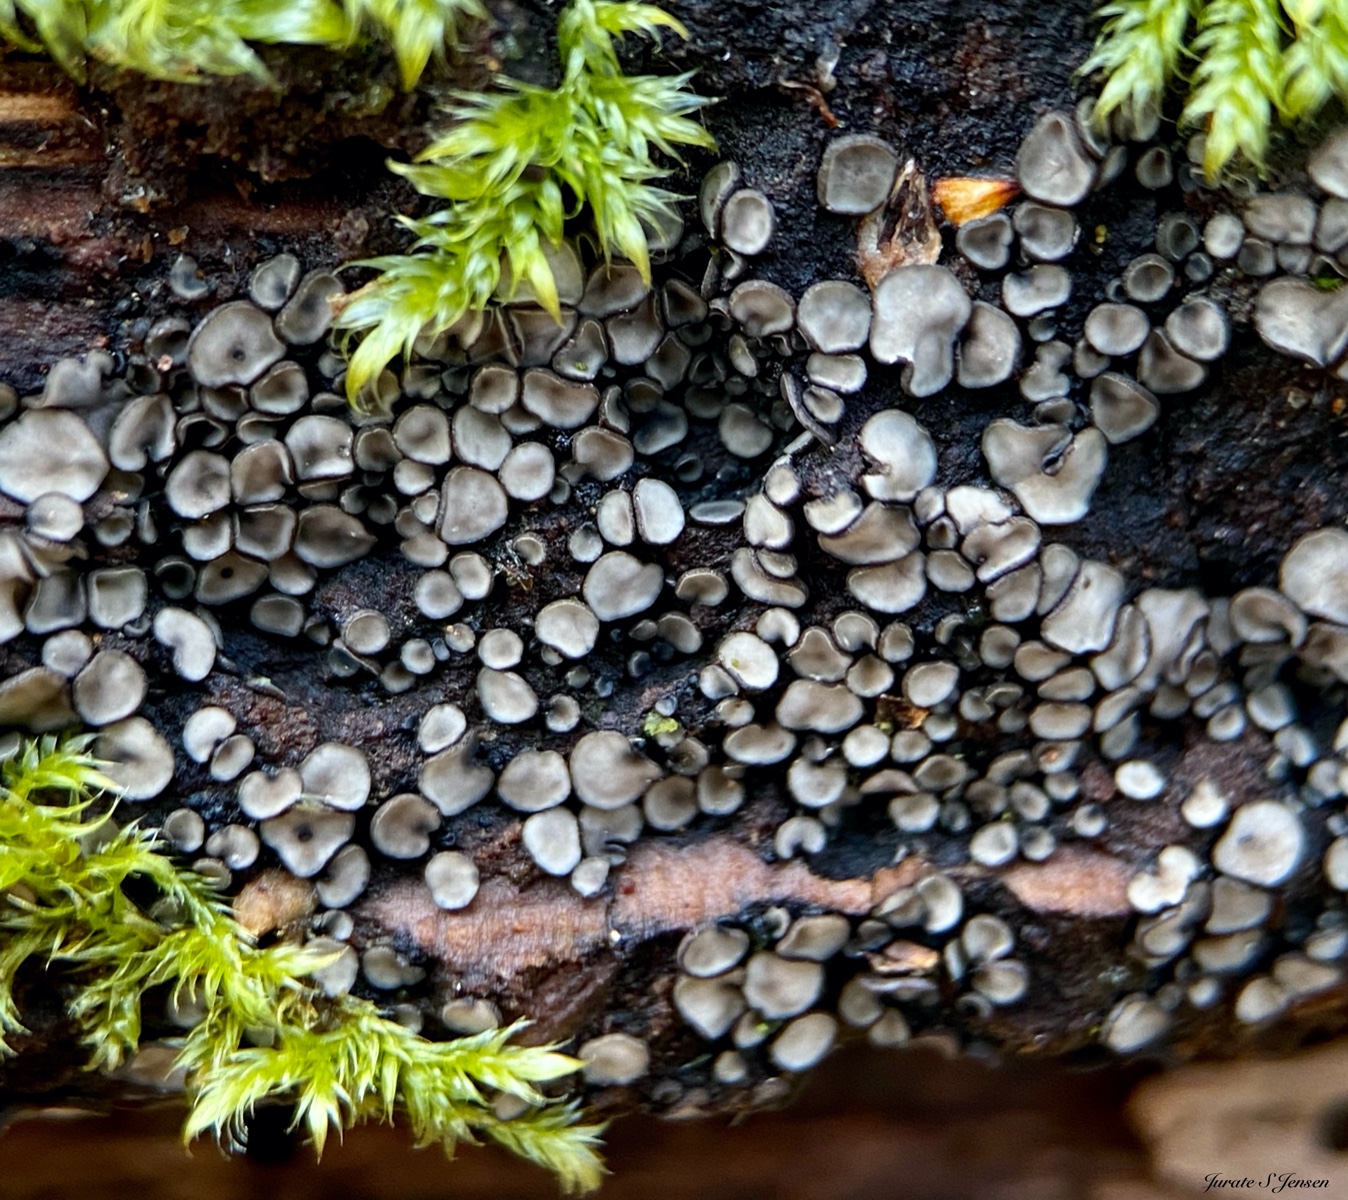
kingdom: Fungi
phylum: Ascomycota
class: Leotiomycetes
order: Helotiales
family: Mollisiaceae
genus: Mollisia
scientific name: Mollisia
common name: gråskive
